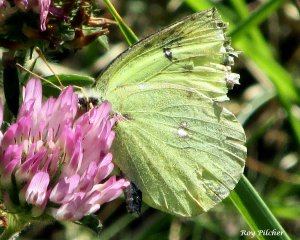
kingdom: Animalia
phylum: Arthropoda
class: Insecta
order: Lepidoptera
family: Pieridae
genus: Colias
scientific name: Colias philodice
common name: Clouded Sulphur
